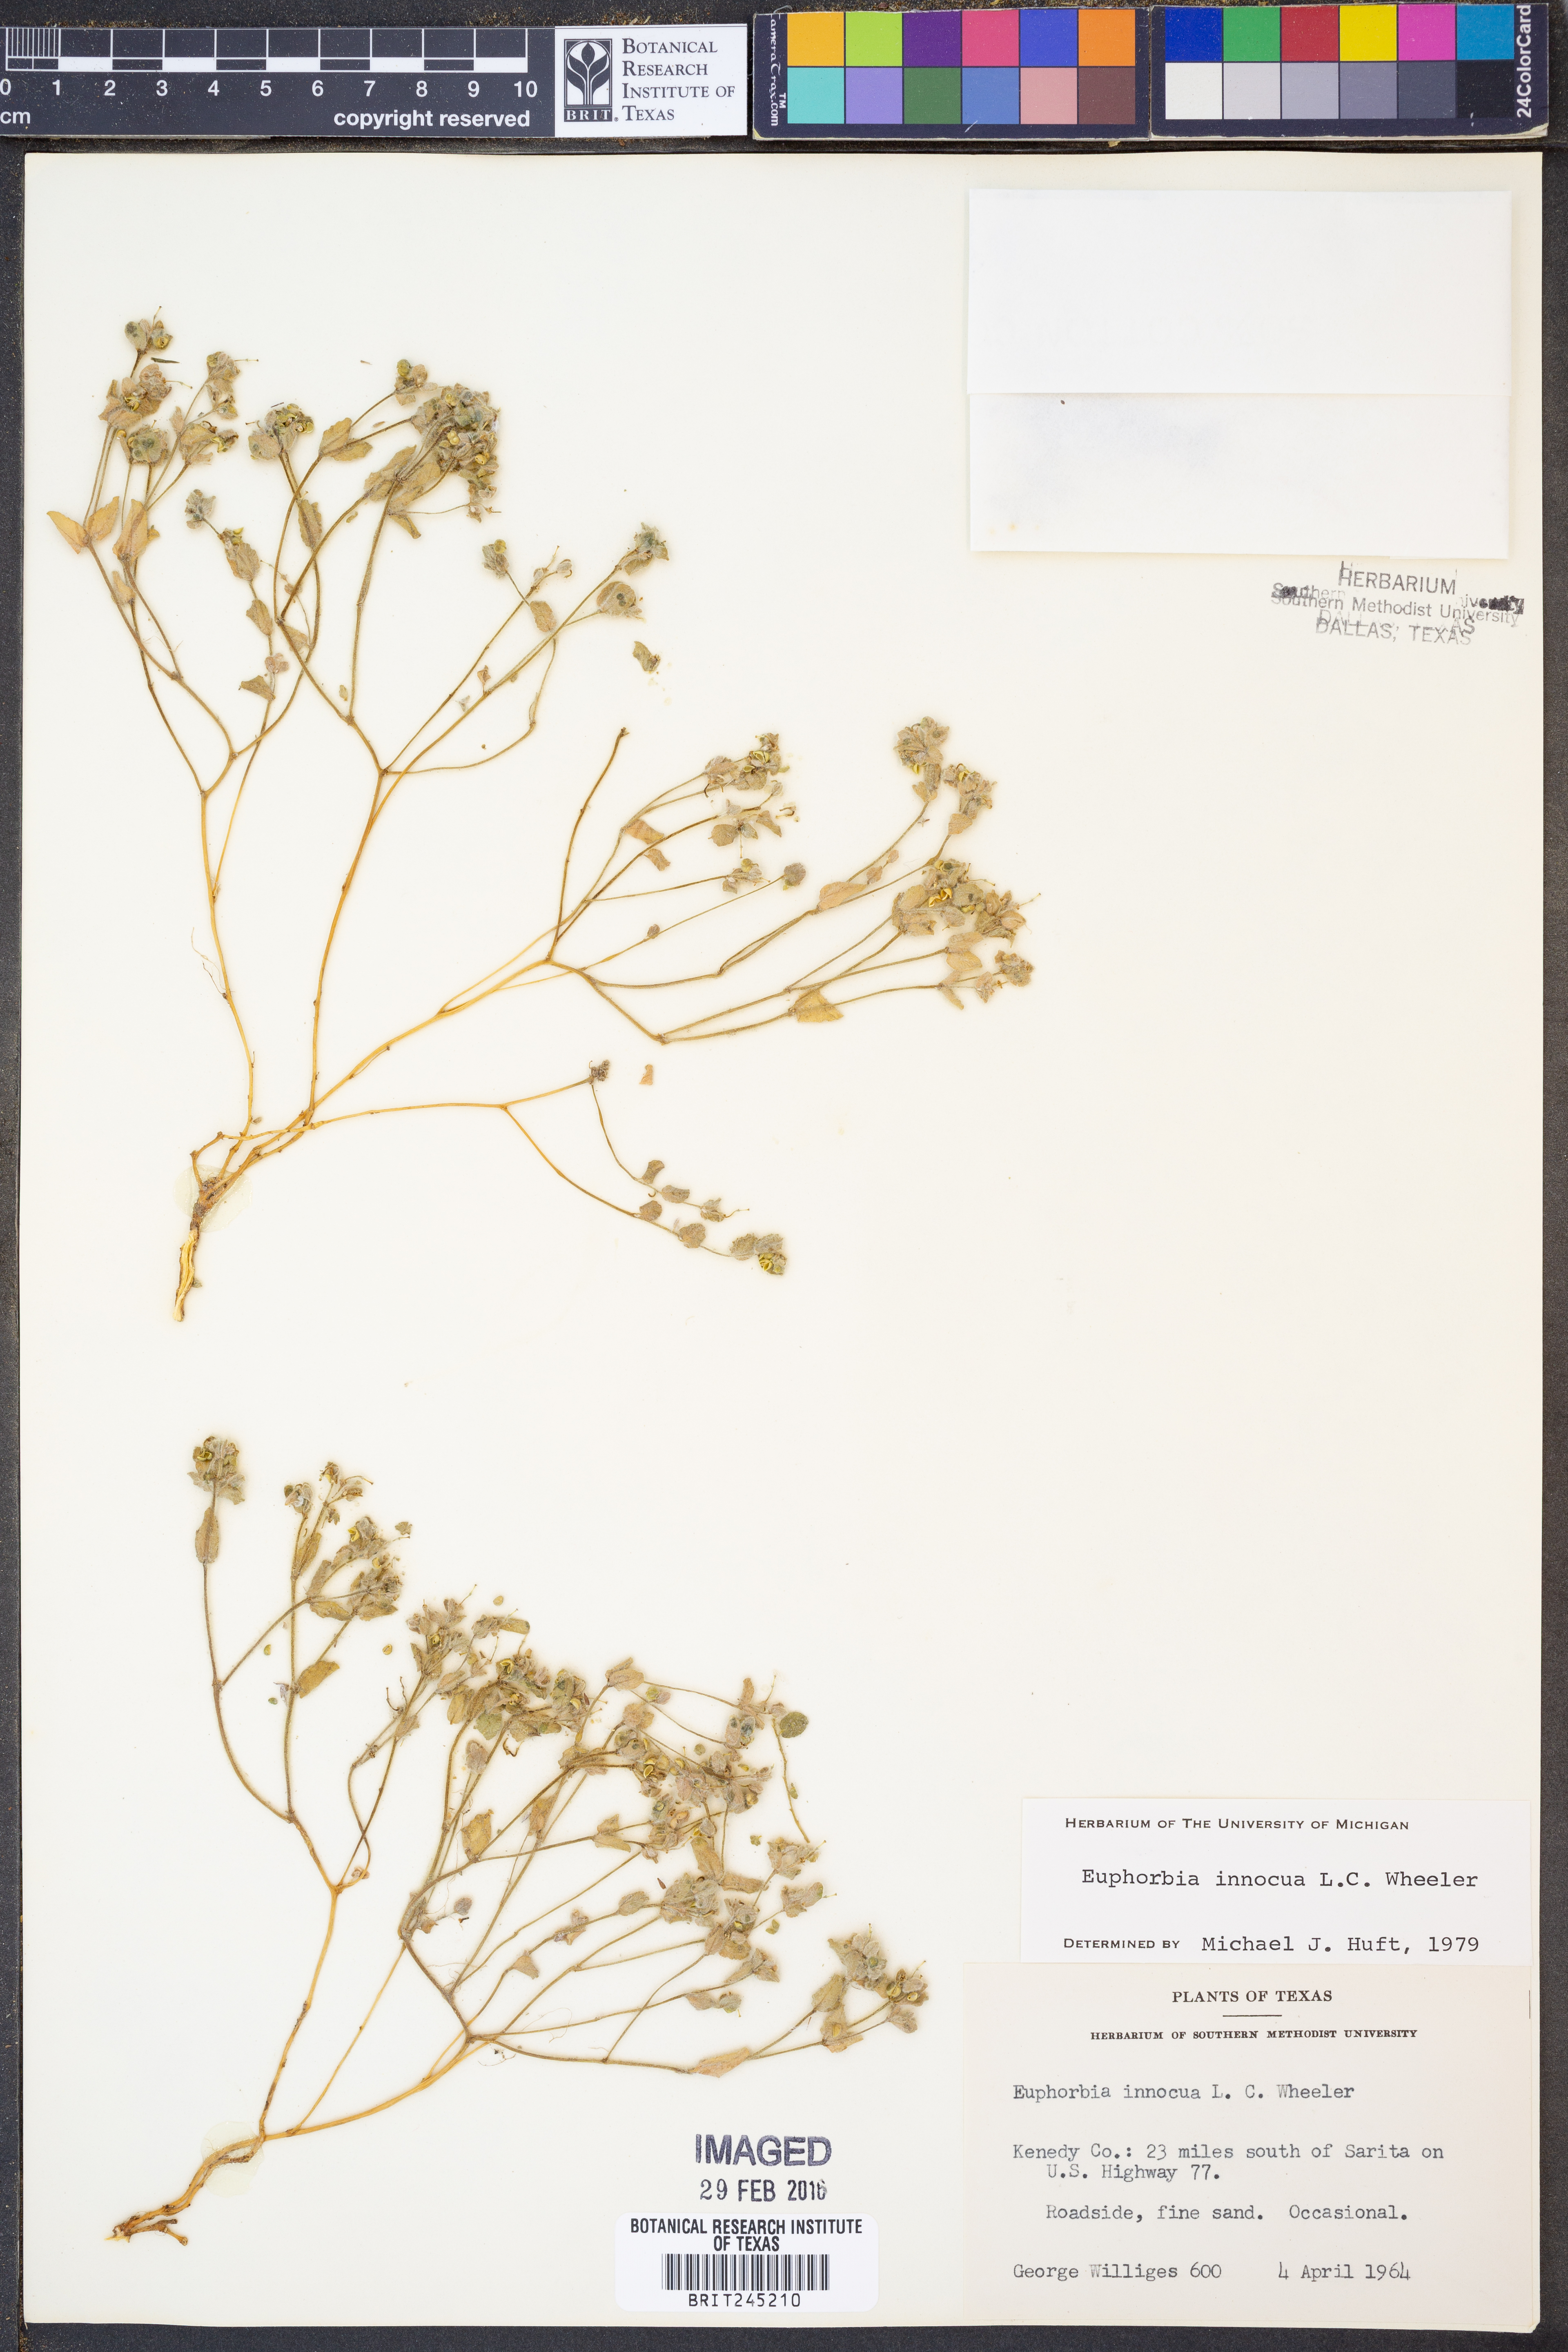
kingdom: Plantae
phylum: Tracheophyta
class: Magnoliopsida
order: Malpighiales
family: Euphorbiaceae
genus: Euphorbia
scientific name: Euphorbia innocua
